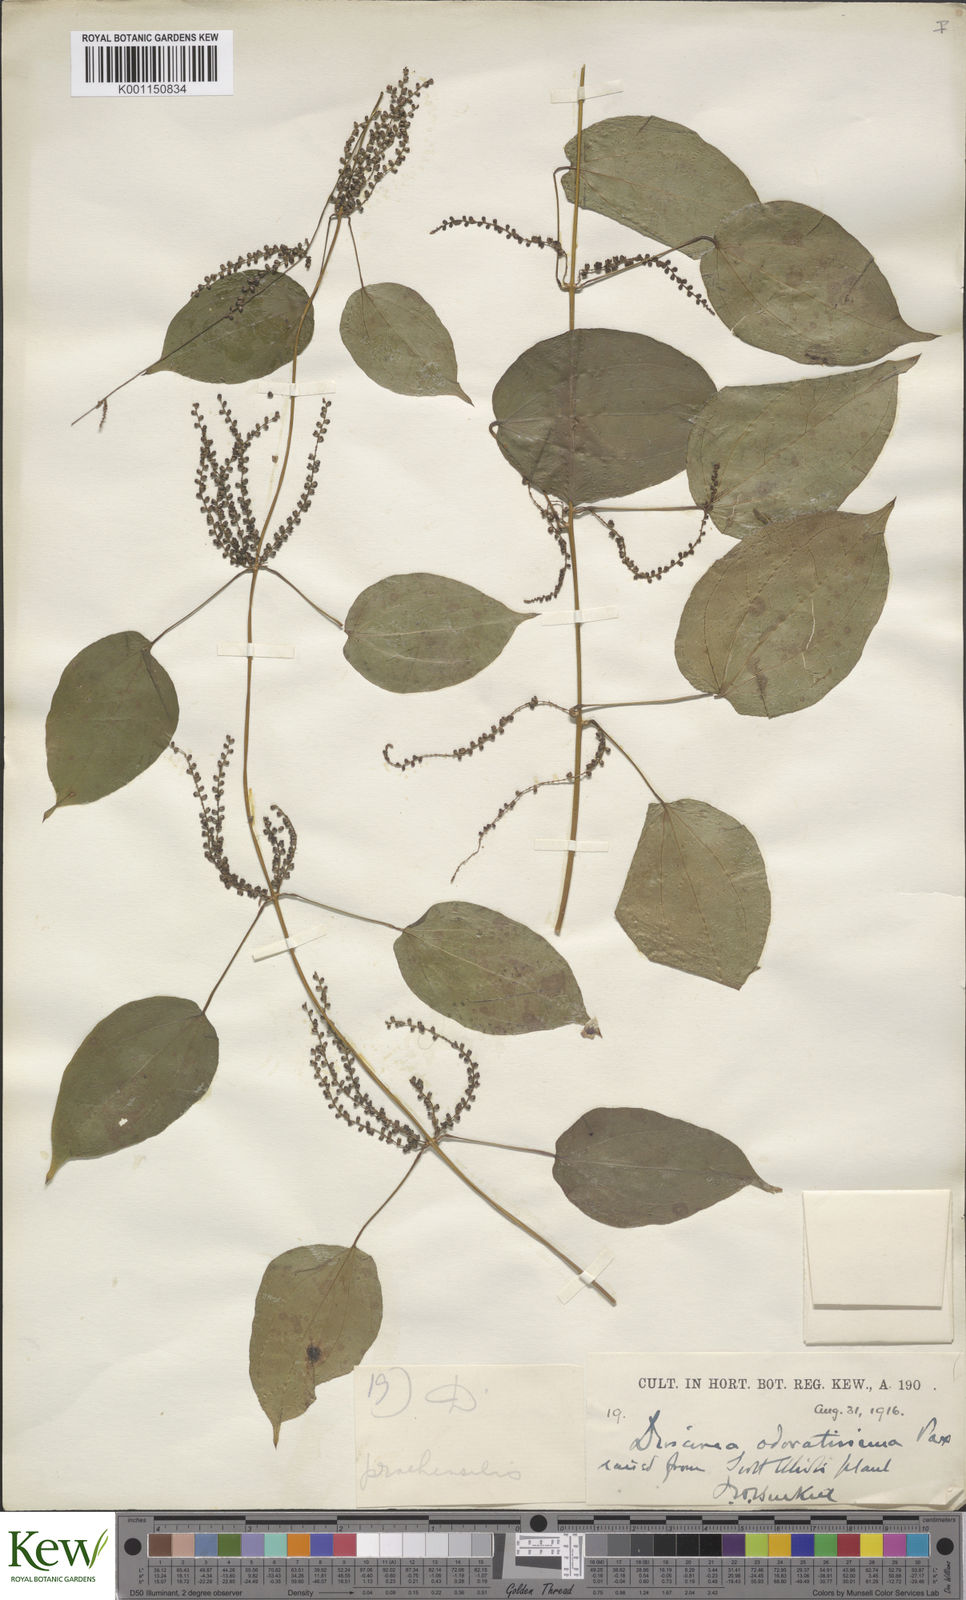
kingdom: Plantae
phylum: Tracheophyta
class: Liliopsida
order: Dioscoreales
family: Dioscoreaceae
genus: Dioscorea
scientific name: Dioscorea praehensilis
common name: Bush yam
